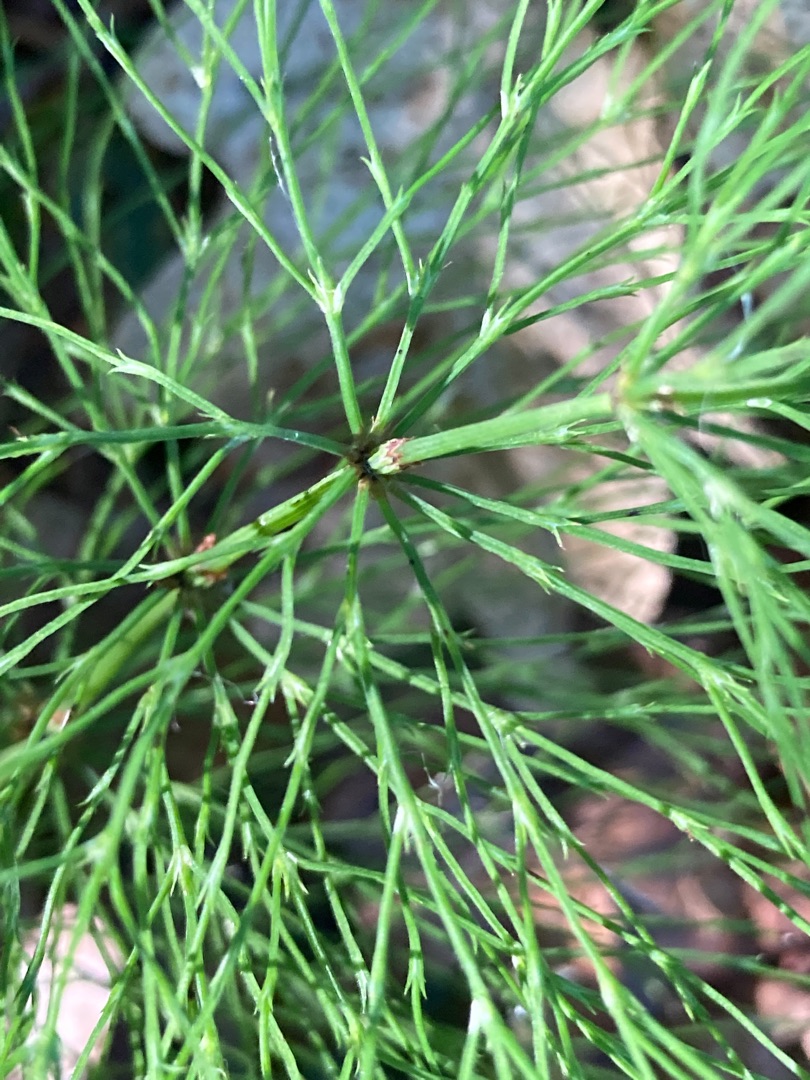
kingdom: Plantae
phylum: Tracheophyta
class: Polypodiopsida
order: Equisetales
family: Equisetaceae
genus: Equisetum
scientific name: Equisetum sylvaticum
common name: Skov-padderok
